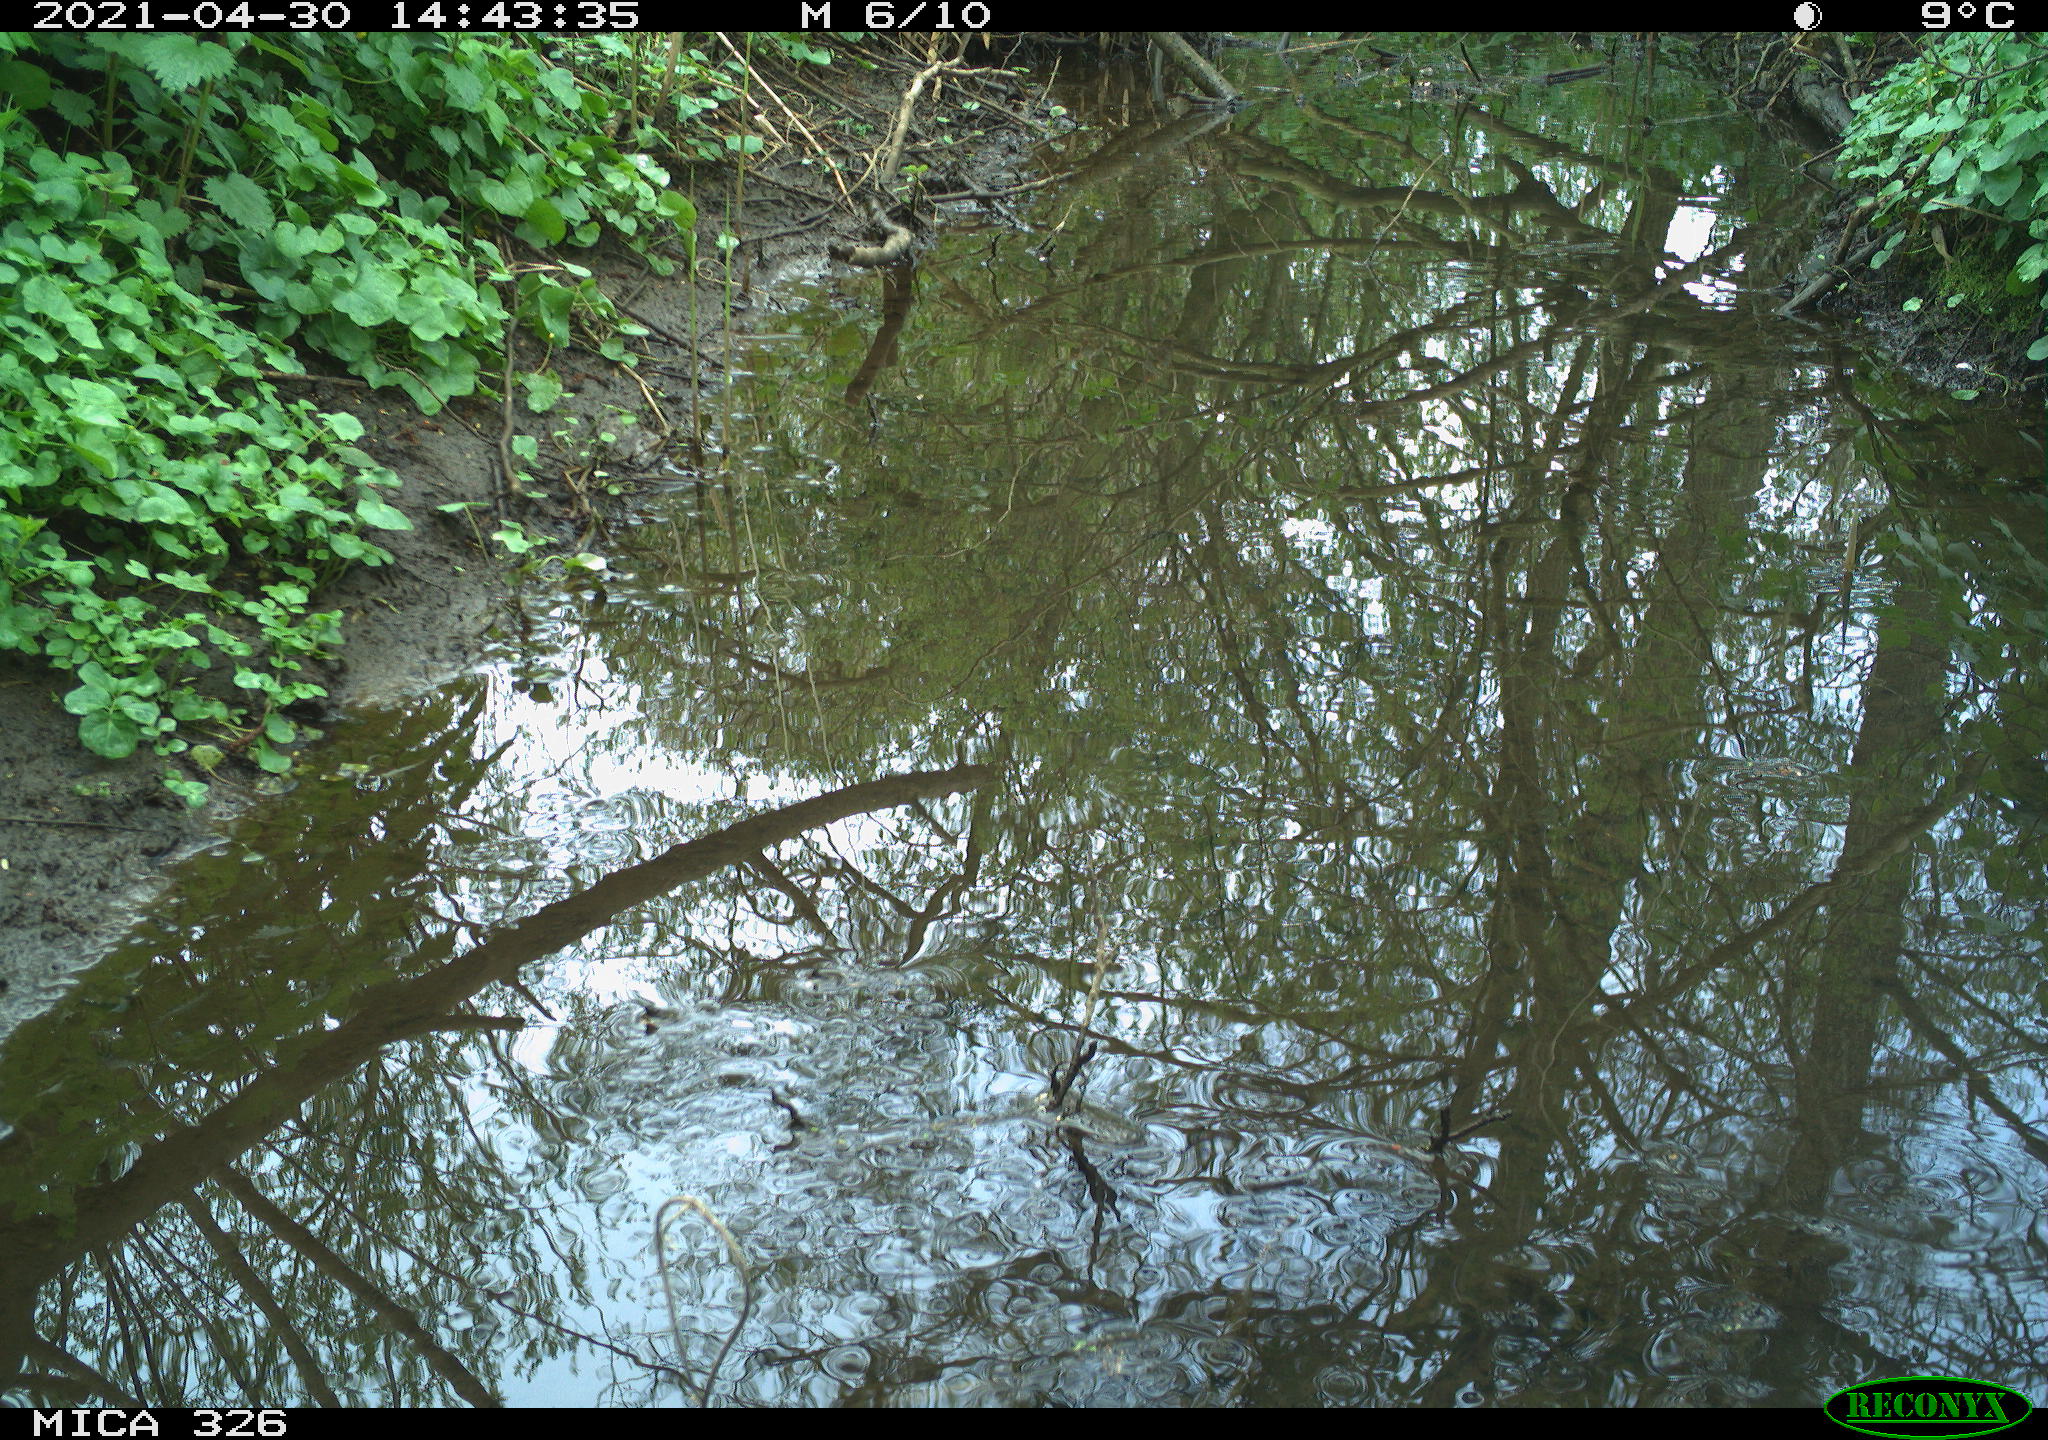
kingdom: Animalia
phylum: Chordata
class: Aves
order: Passeriformes
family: Turdidae
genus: Turdus
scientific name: Turdus merula
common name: Common blackbird
